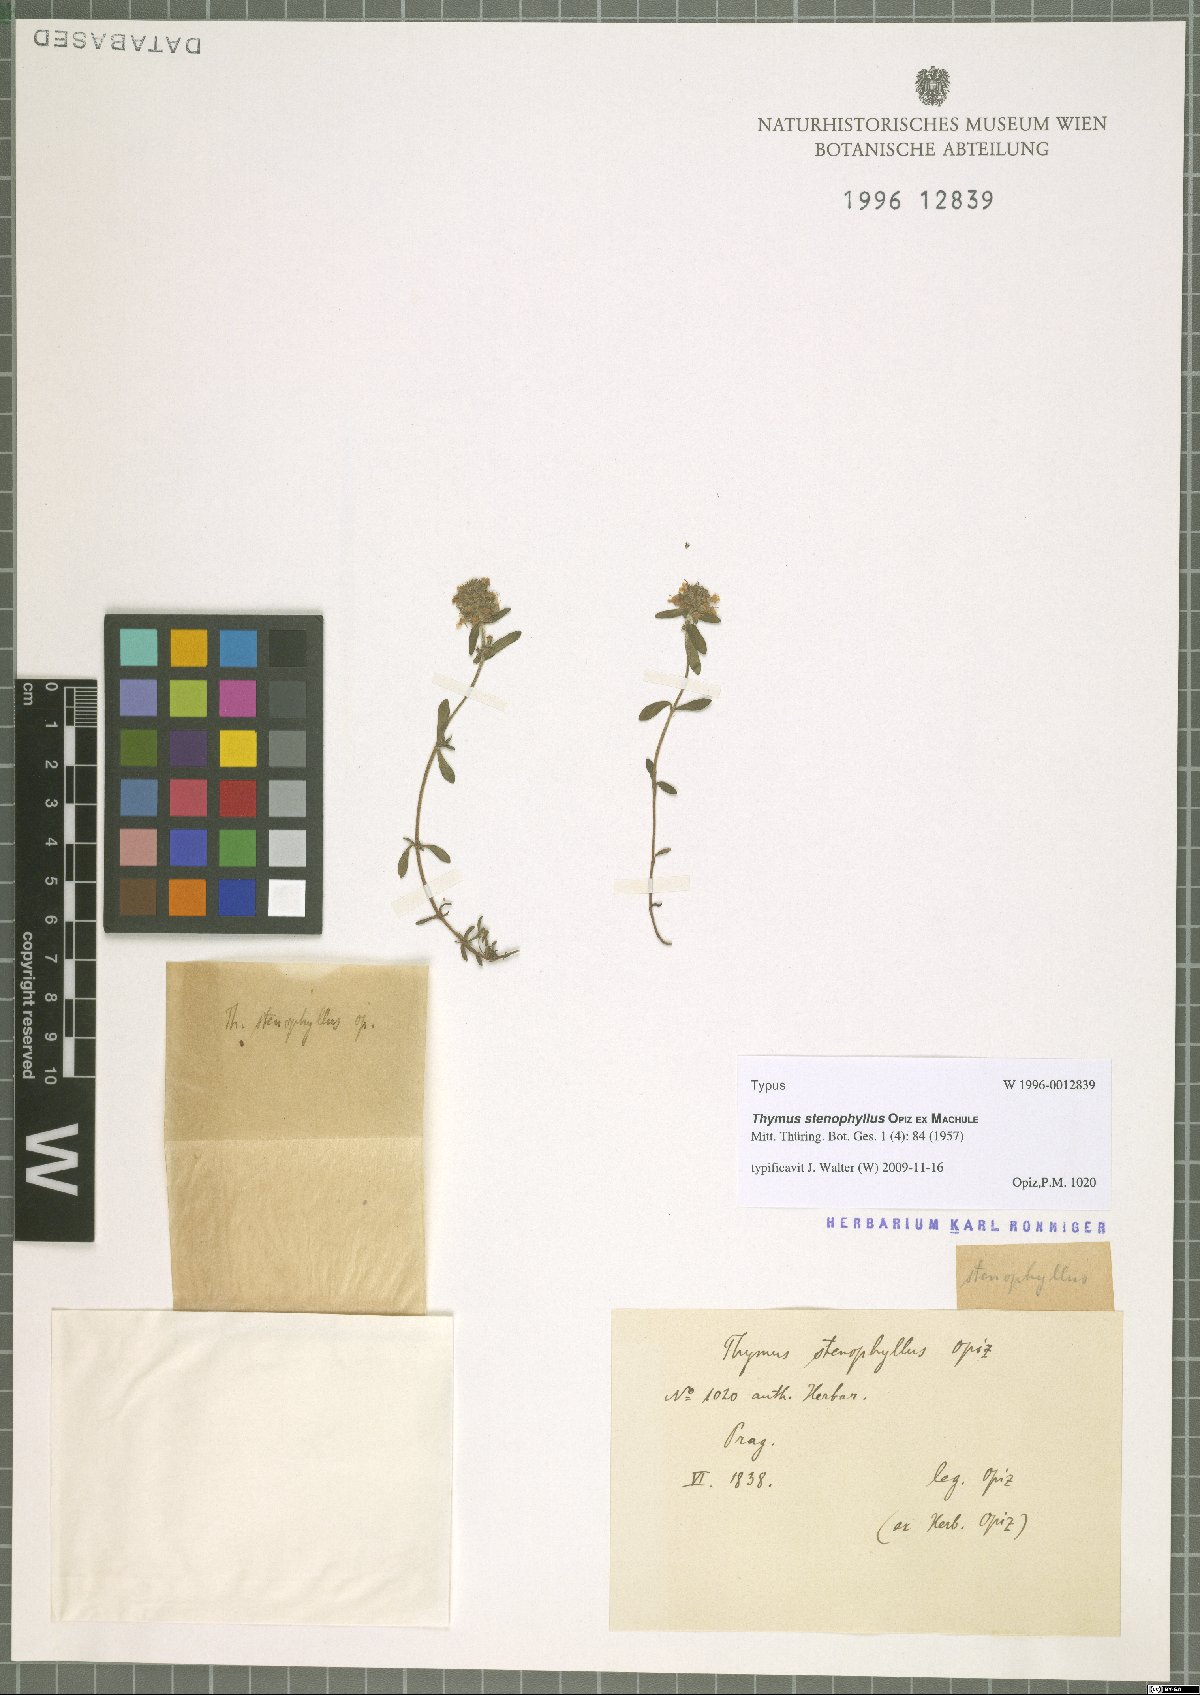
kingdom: Plantae
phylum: Tracheophyta
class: Magnoliopsida
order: Lamiales
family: Lamiaceae
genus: Thymus
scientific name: Thymus odoratissimus
